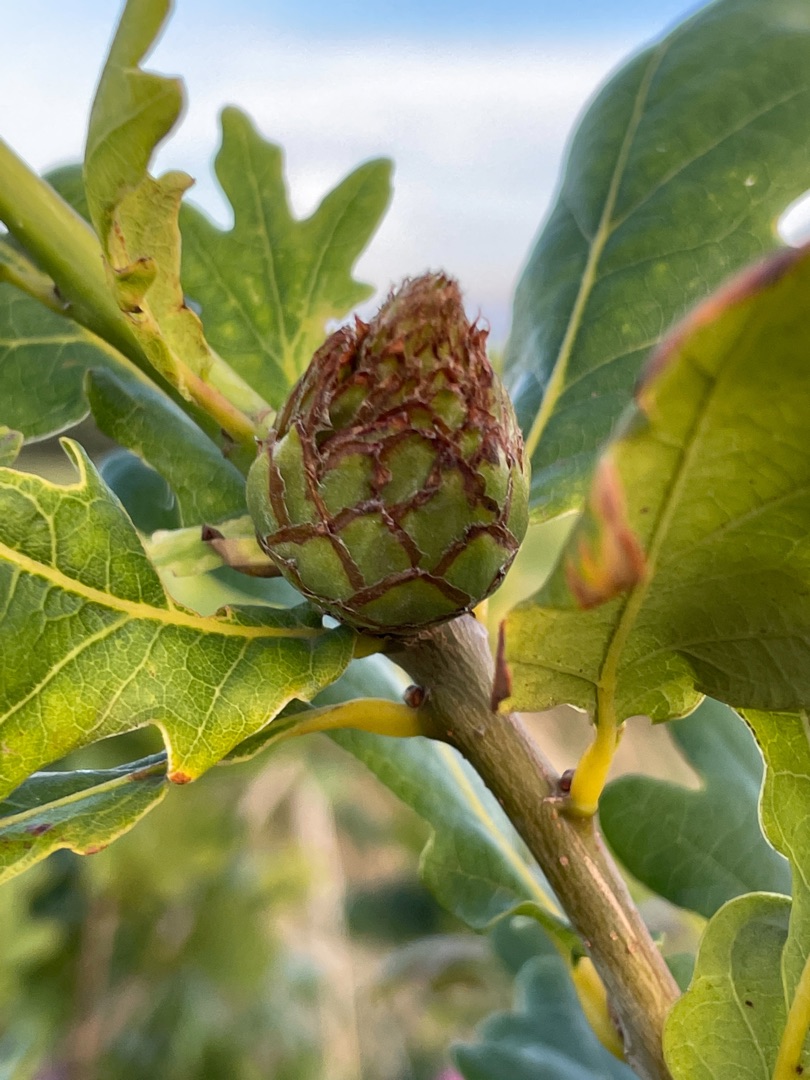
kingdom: Animalia
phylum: Arthropoda
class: Insecta
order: Hymenoptera
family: Cynipidae
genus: Andricus
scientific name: Andricus foecundatrix
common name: Artiskokgalhveps
